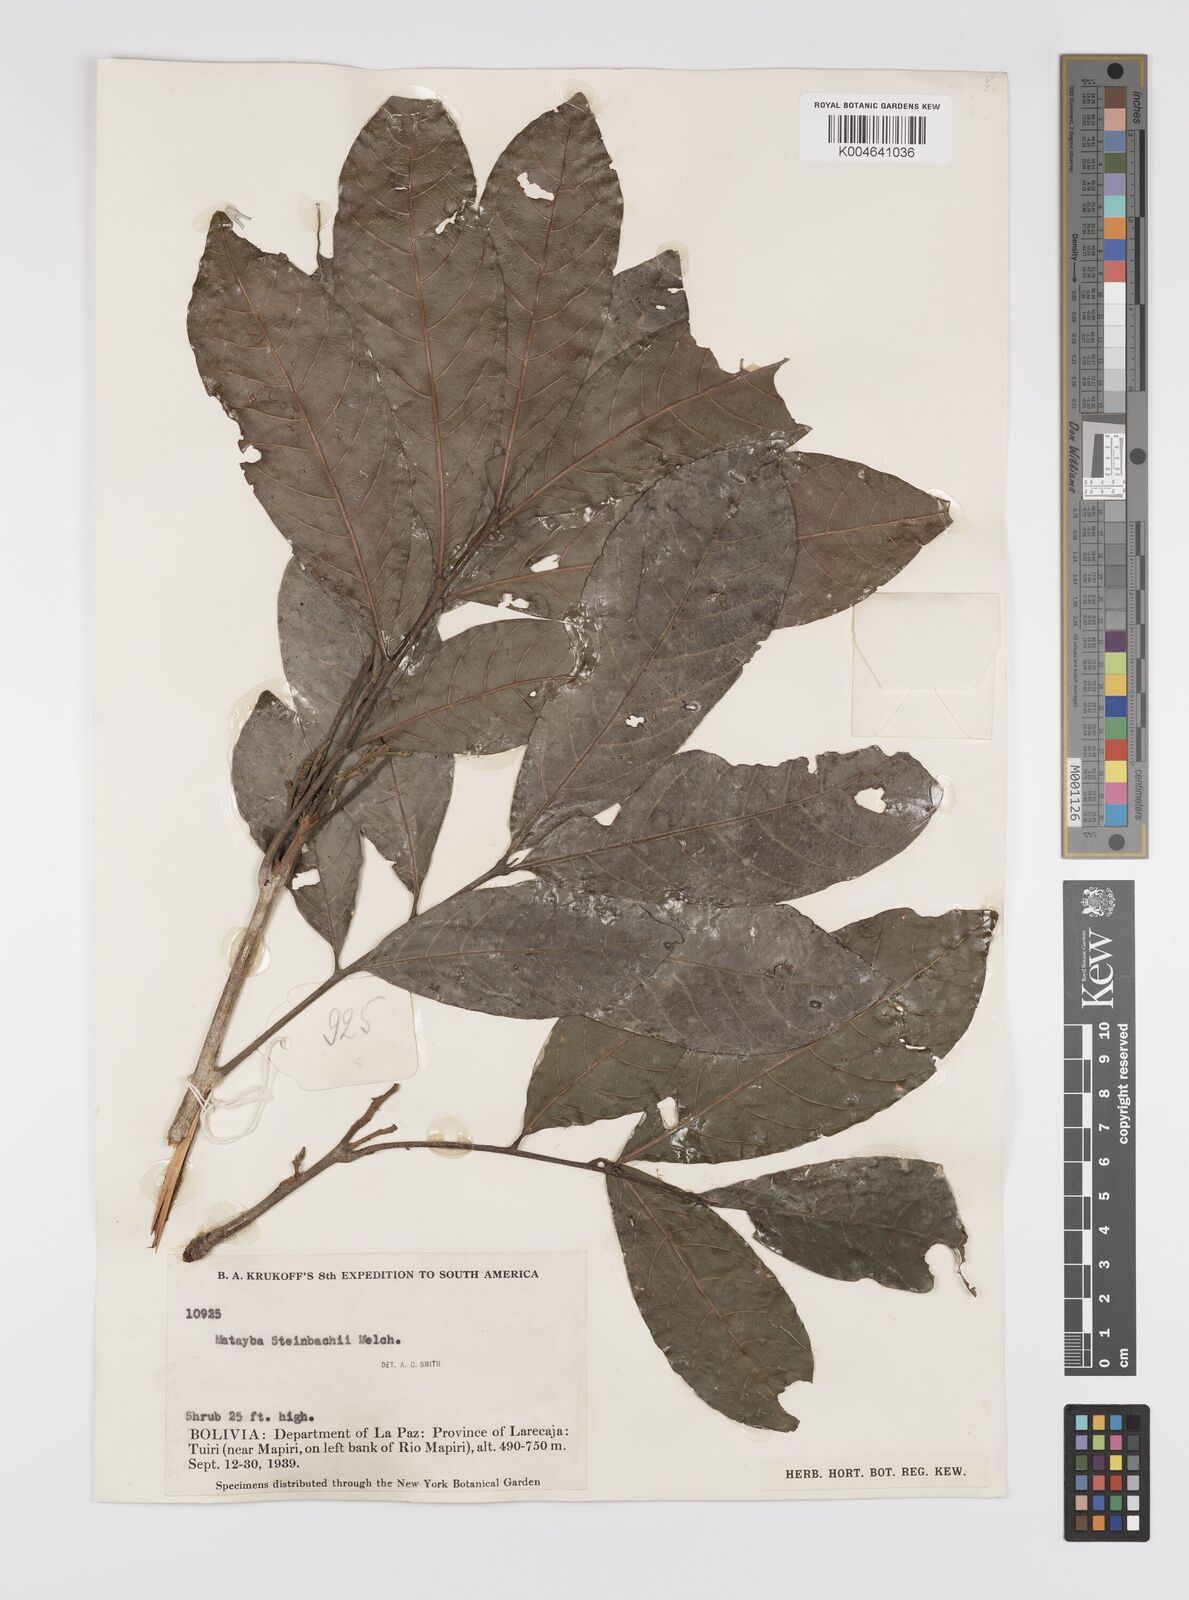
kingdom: Plantae
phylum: Tracheophyta
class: Magnoliopsida
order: Sapindales
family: Sapindaceae
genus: Matayba
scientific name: Matayba guianensis
